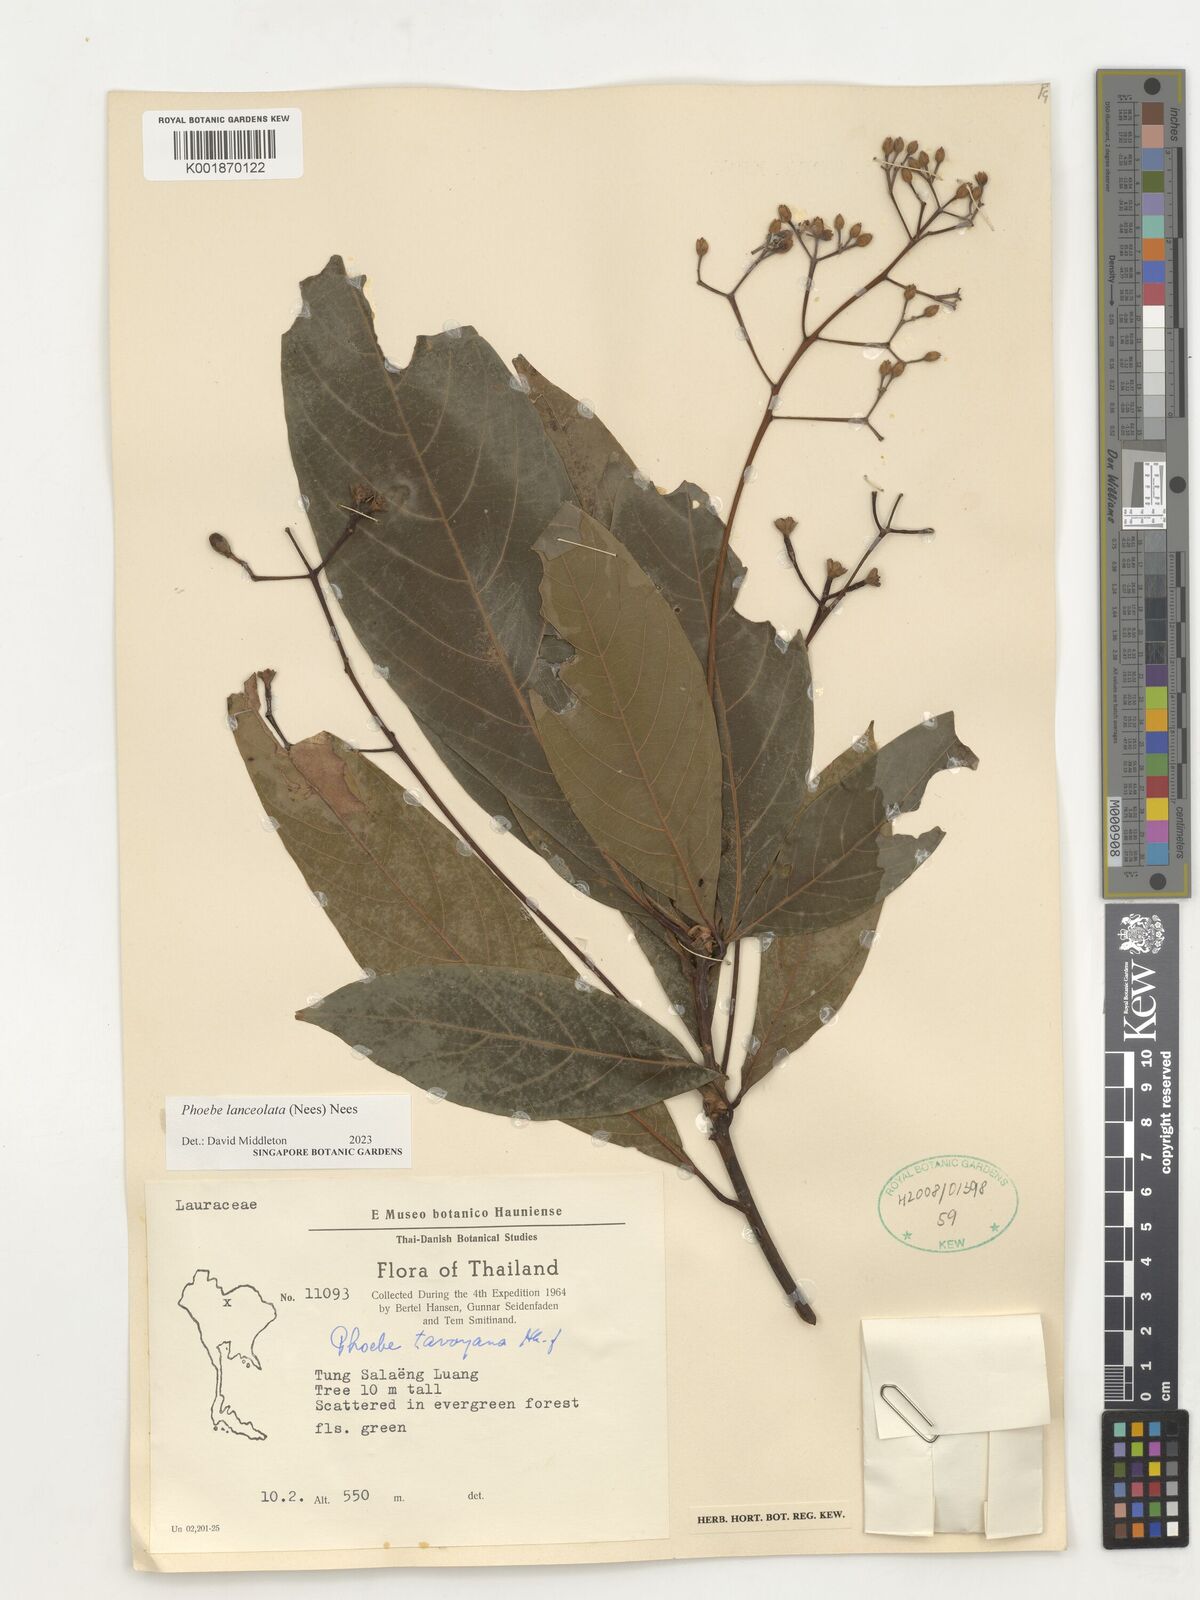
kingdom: Plantae
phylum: Tracheophyta
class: Magnoliopsida
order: Laurales
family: Lauraceae
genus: Phoebe
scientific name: Phoebe lanceolata
